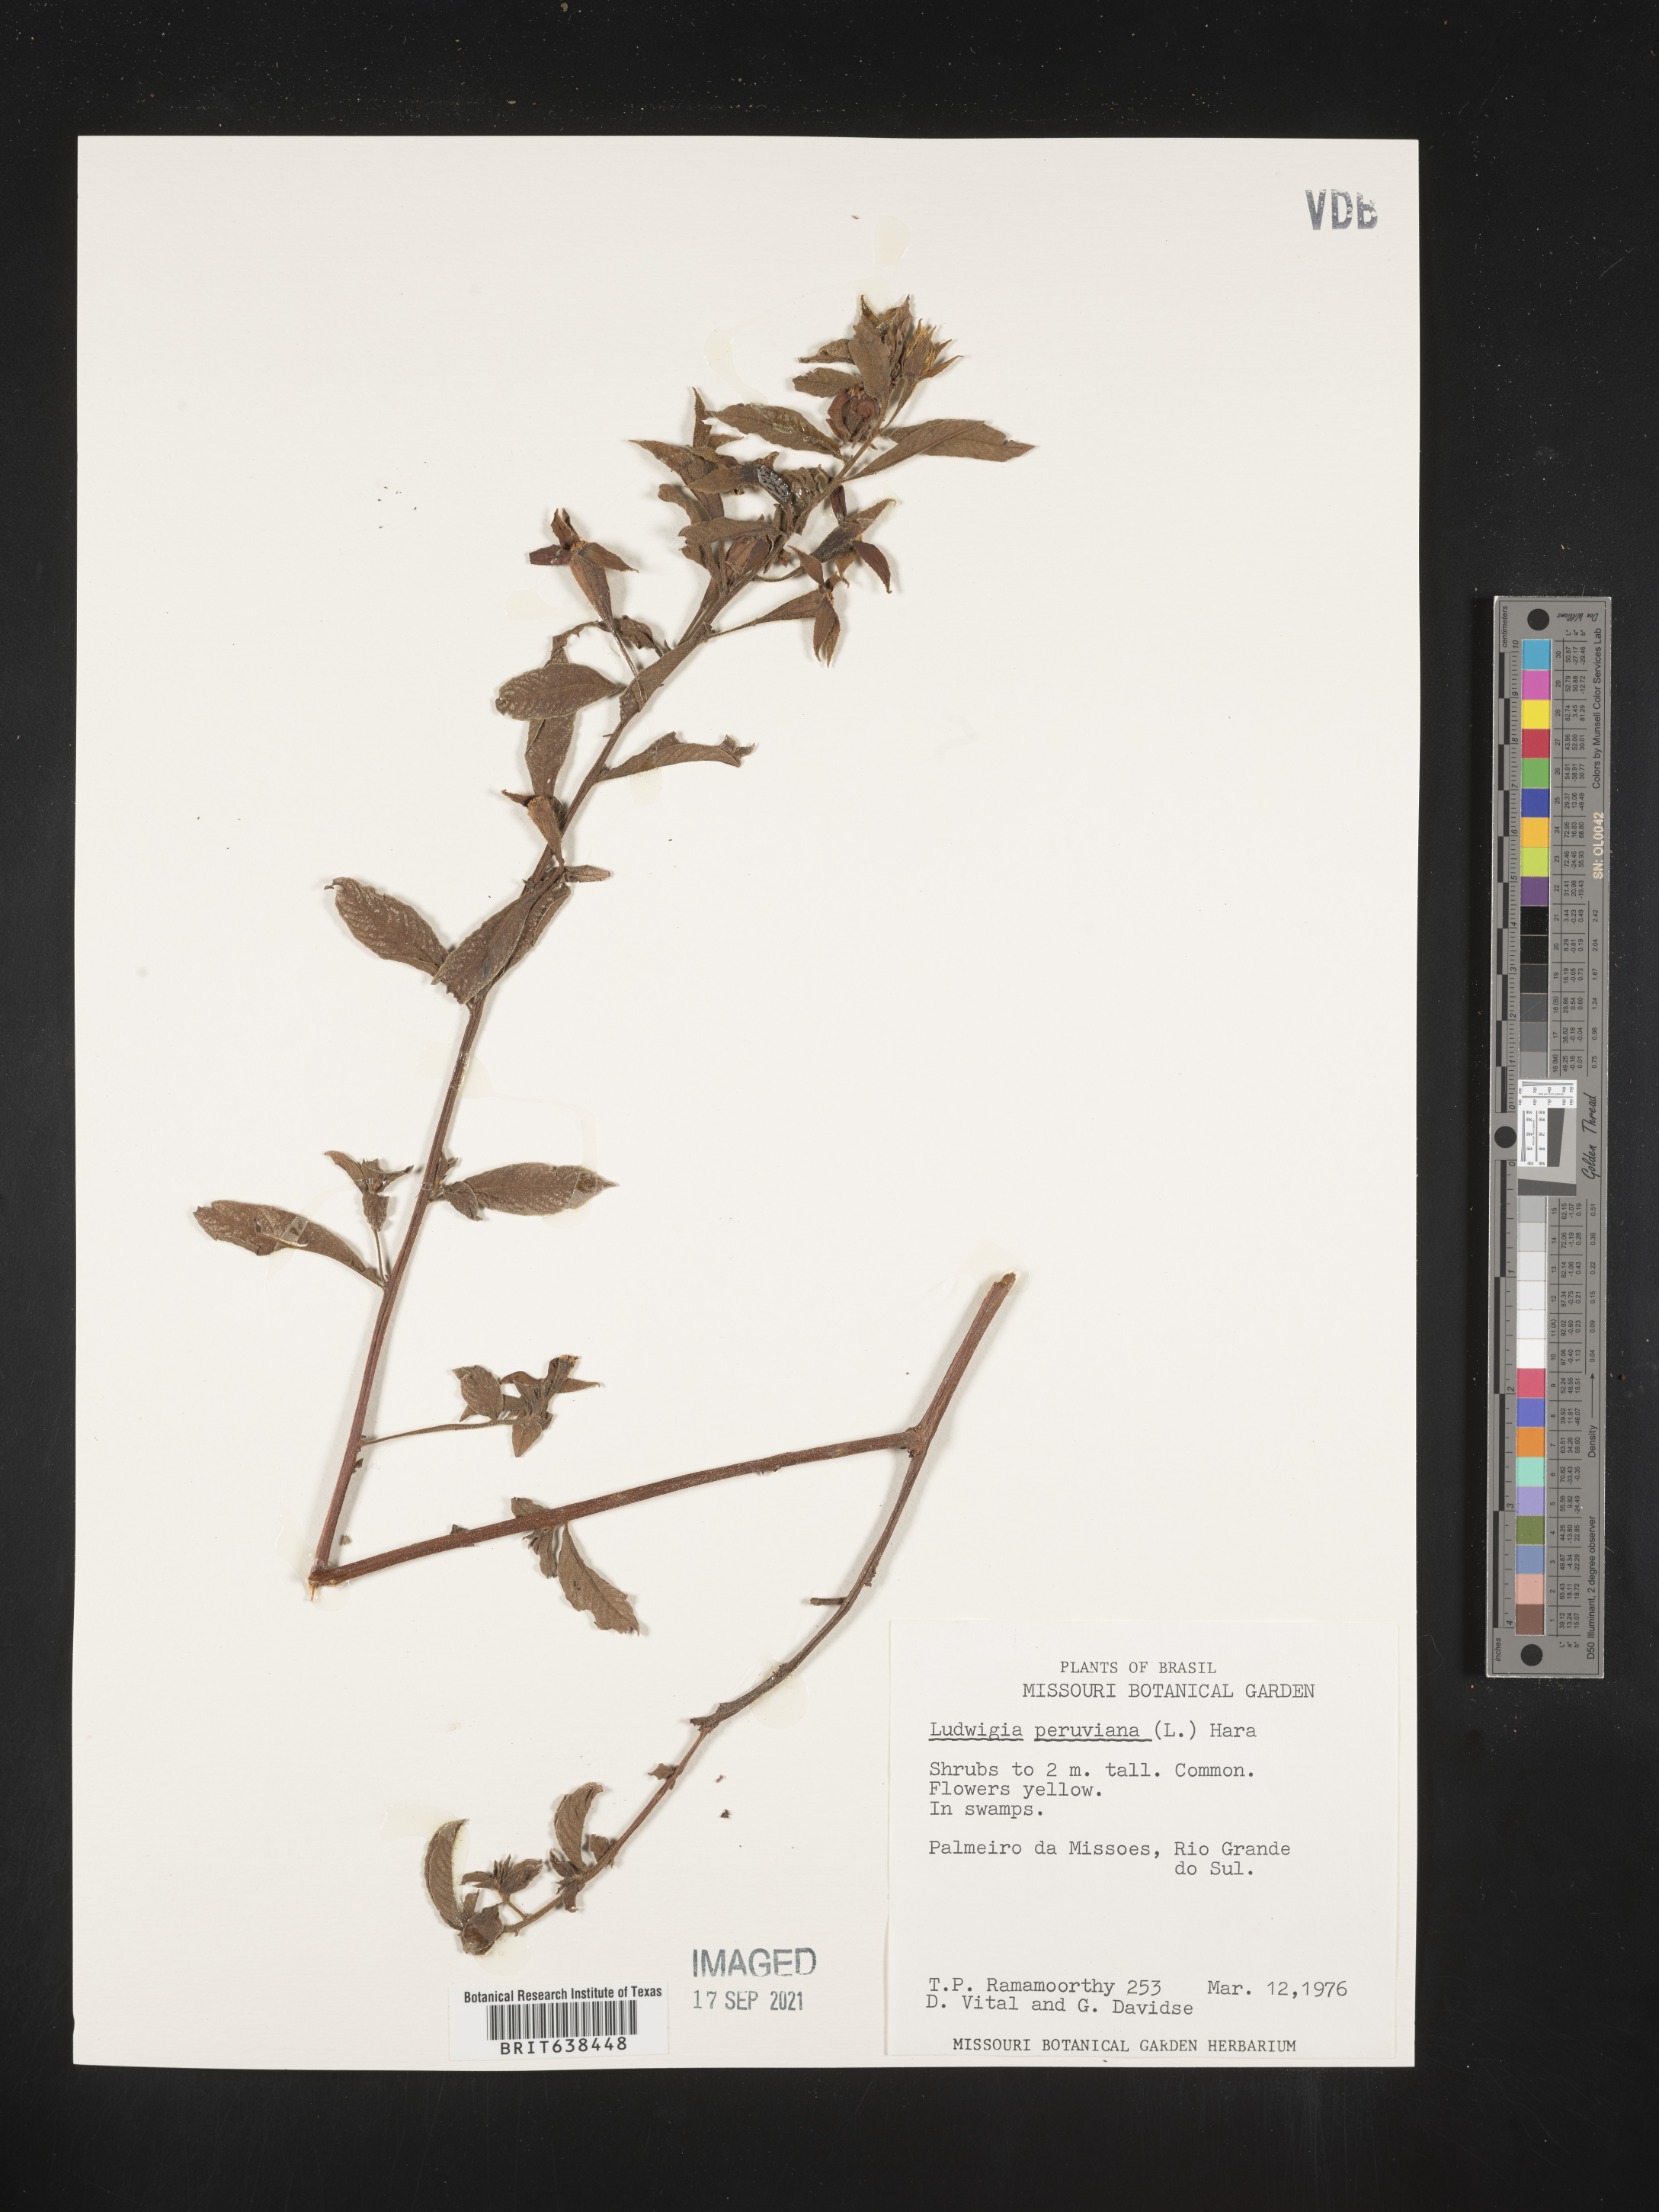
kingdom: Plantae
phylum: Tracheophyta
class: Magnoliopsida
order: Myrtales
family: Onagraceae
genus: Ludwigia
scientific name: Ludwigia
